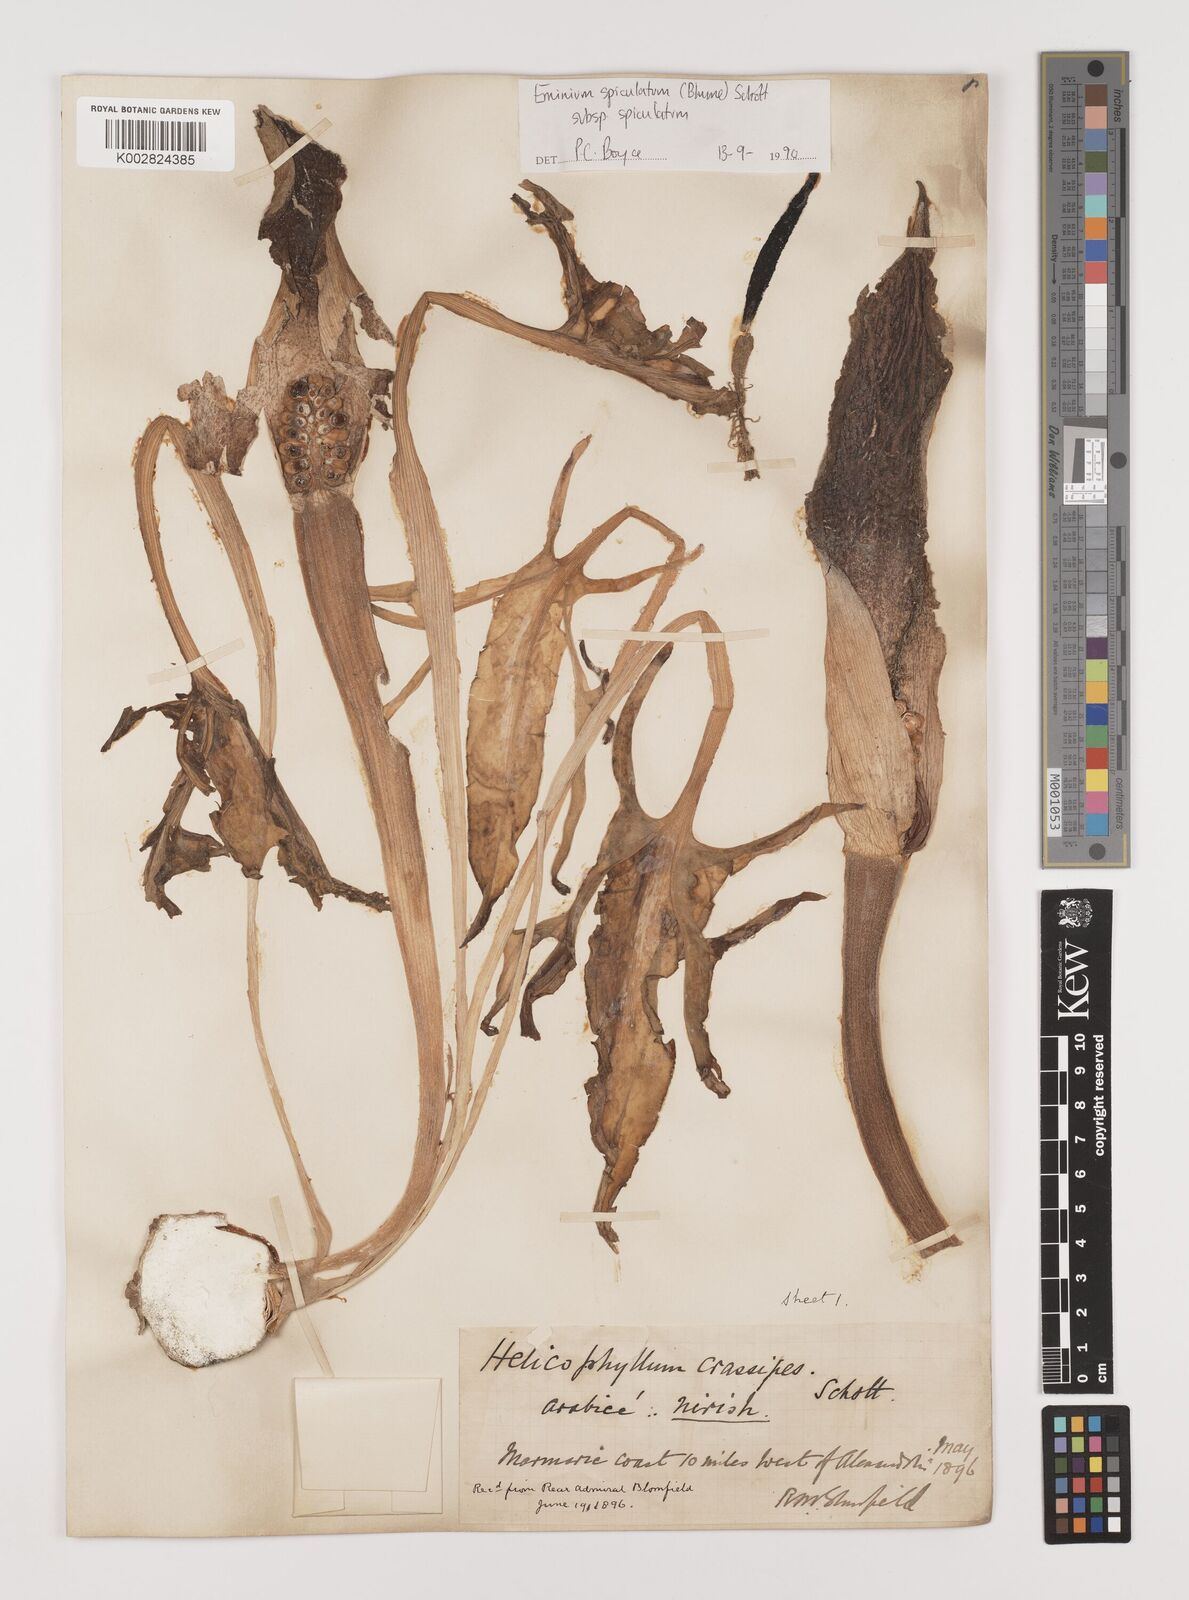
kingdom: Plantae
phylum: Tracheophyta
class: Liliopsida
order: Alismatales
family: Araceae
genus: Eminium
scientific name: Eminium spiculatum
